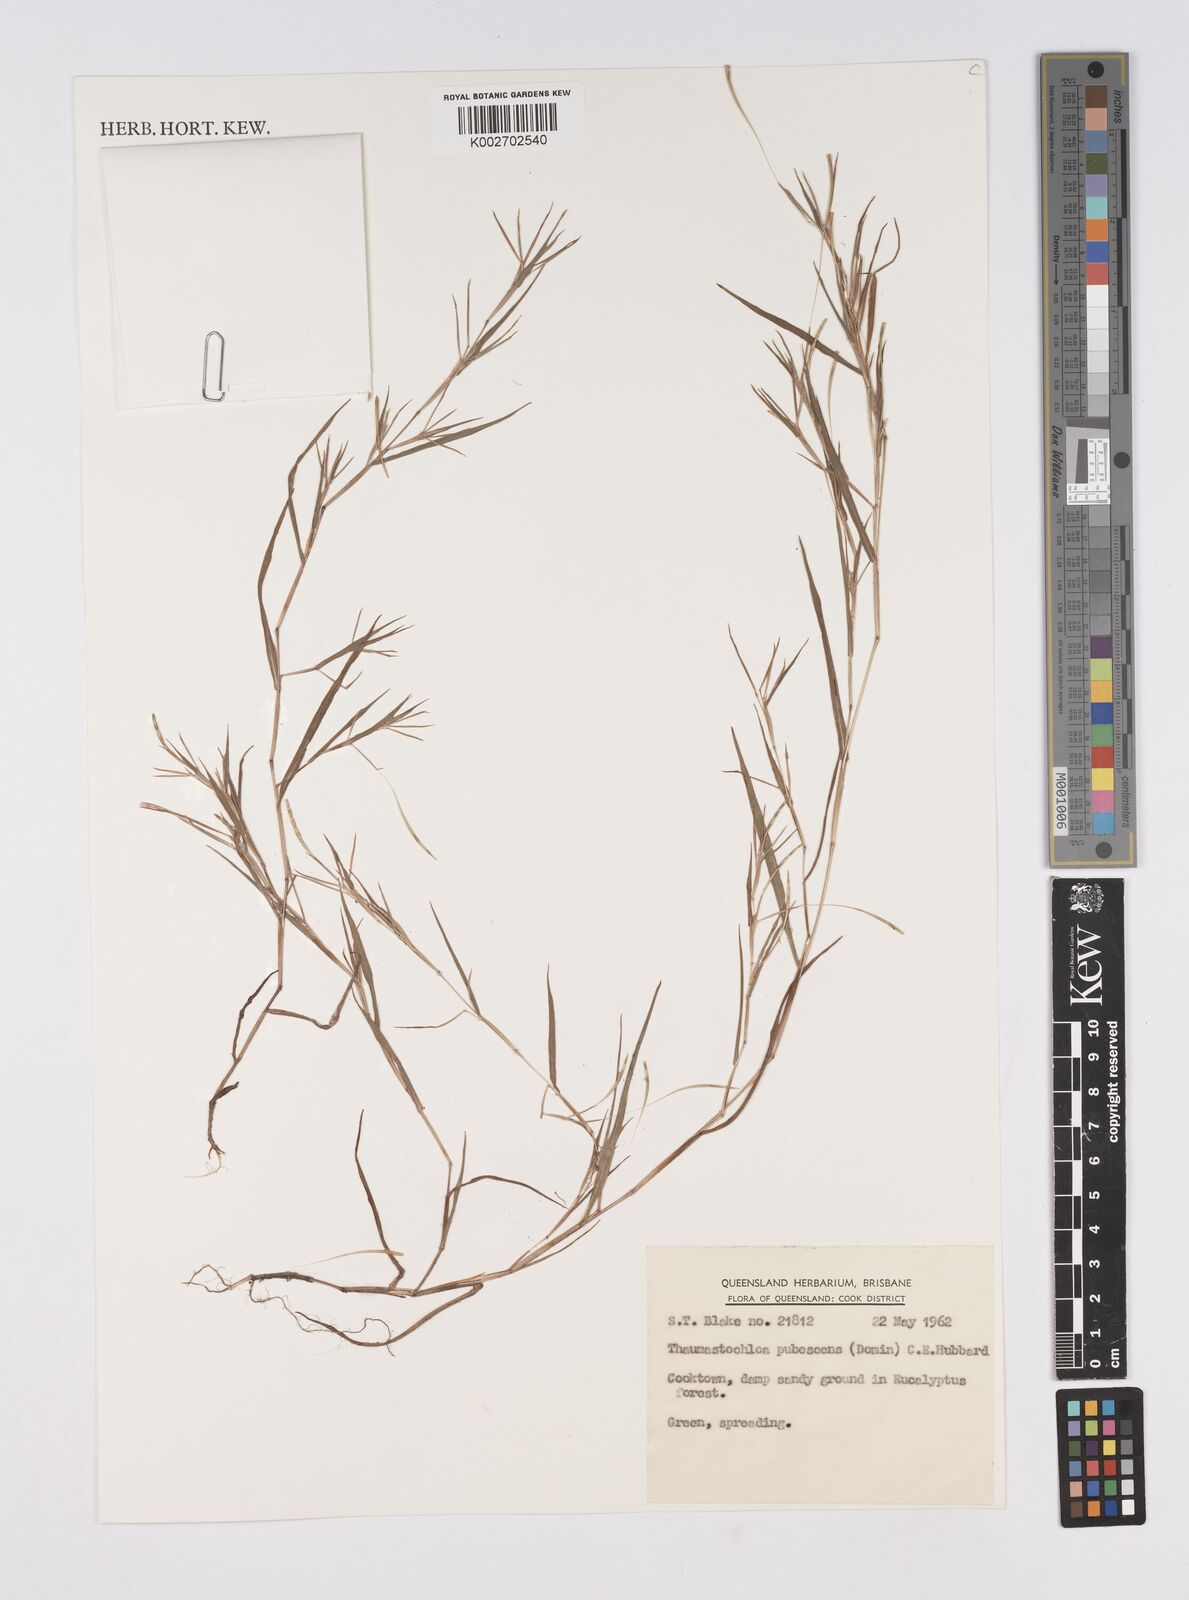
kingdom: Plantae
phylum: Tracheophyta
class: Liliopsida
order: Poales
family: Poaceae
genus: Thaumastochloa
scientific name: Thaumastochloa pubescens
